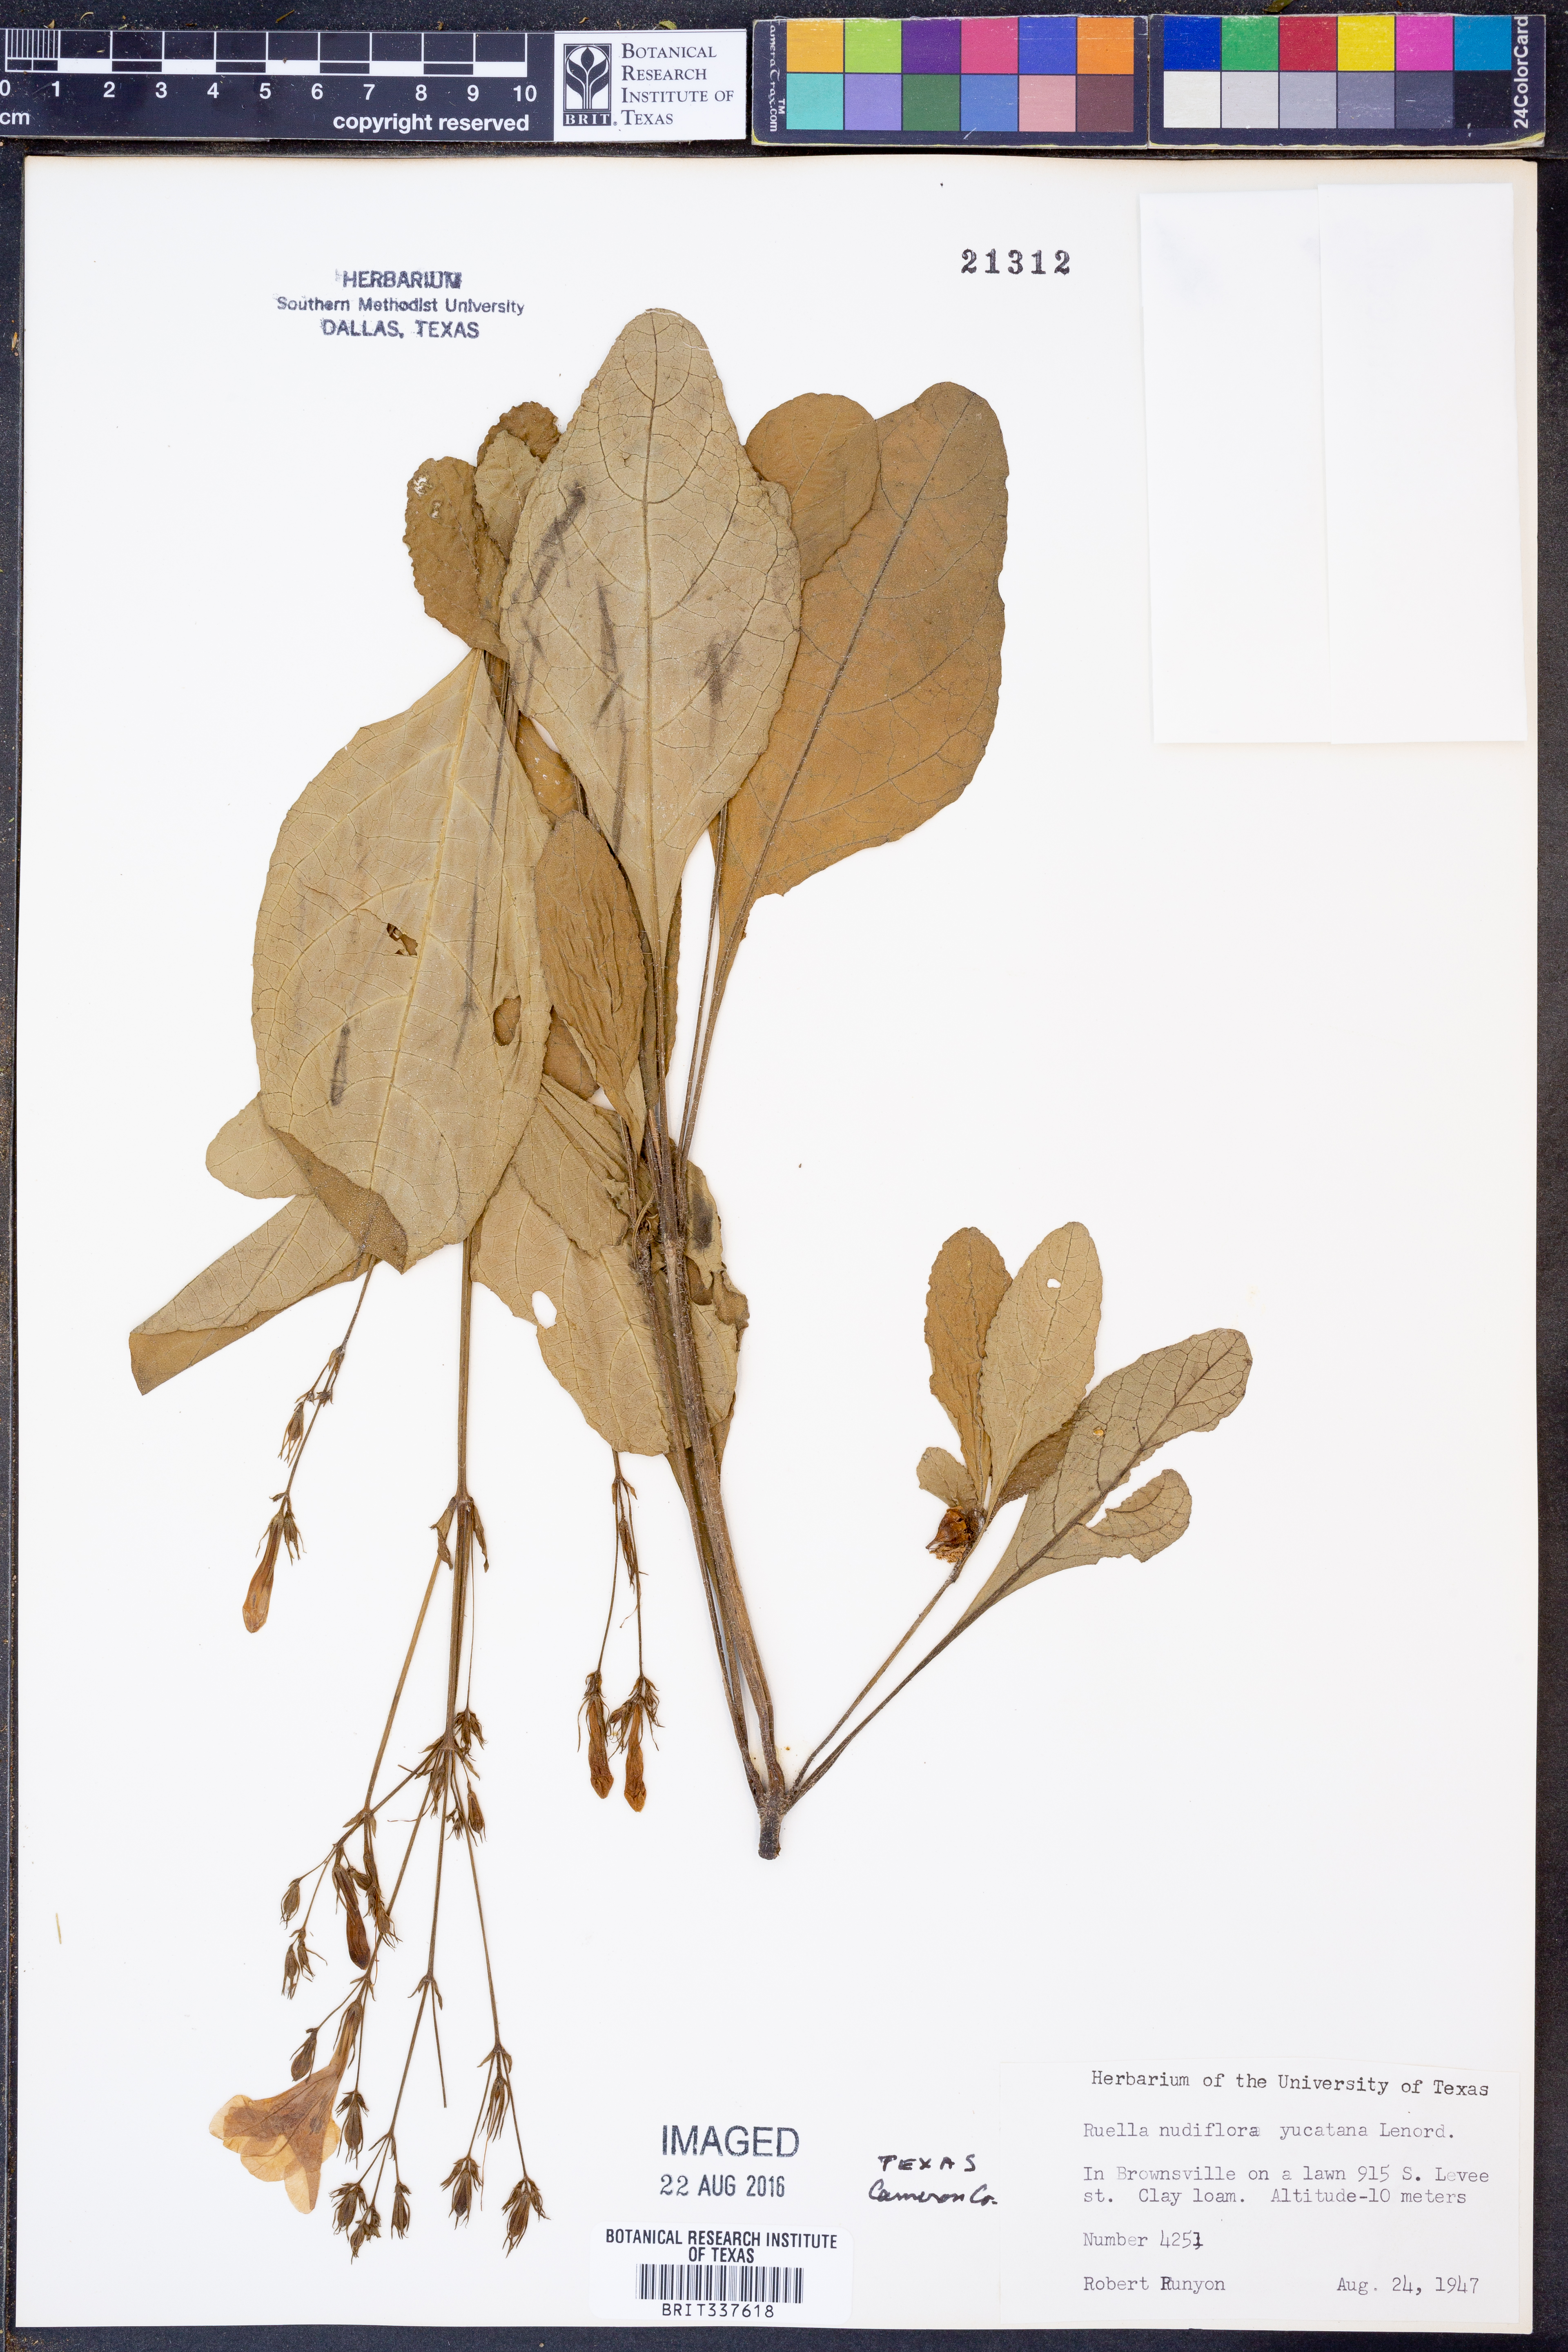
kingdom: Plantae
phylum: Tracheophyta
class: Magnoliopsida
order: Lamiales
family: Acanthaceae
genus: Ruellia
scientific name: Ruellia ciliatiflora
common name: Hairyflower wild petunia
